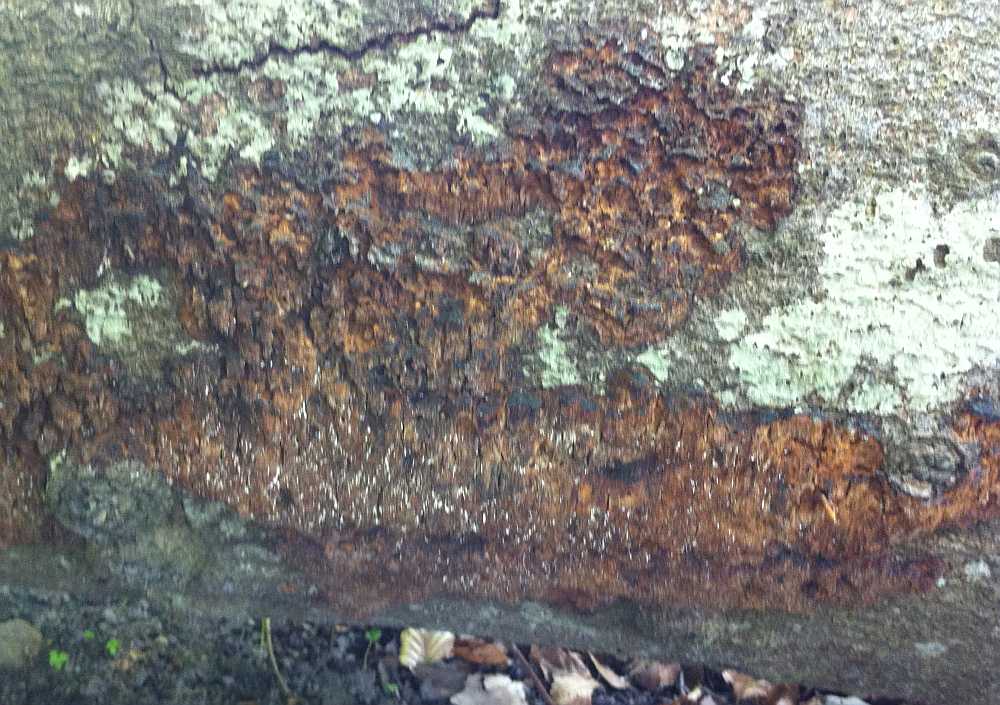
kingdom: Fungi
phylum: Basidiomycota
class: Agaricomycetes
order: Hymenochaetales
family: Hymenochaetaceae
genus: Mensularia
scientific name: Mensularia nodulosa
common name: bøge-spejlporesvamp
